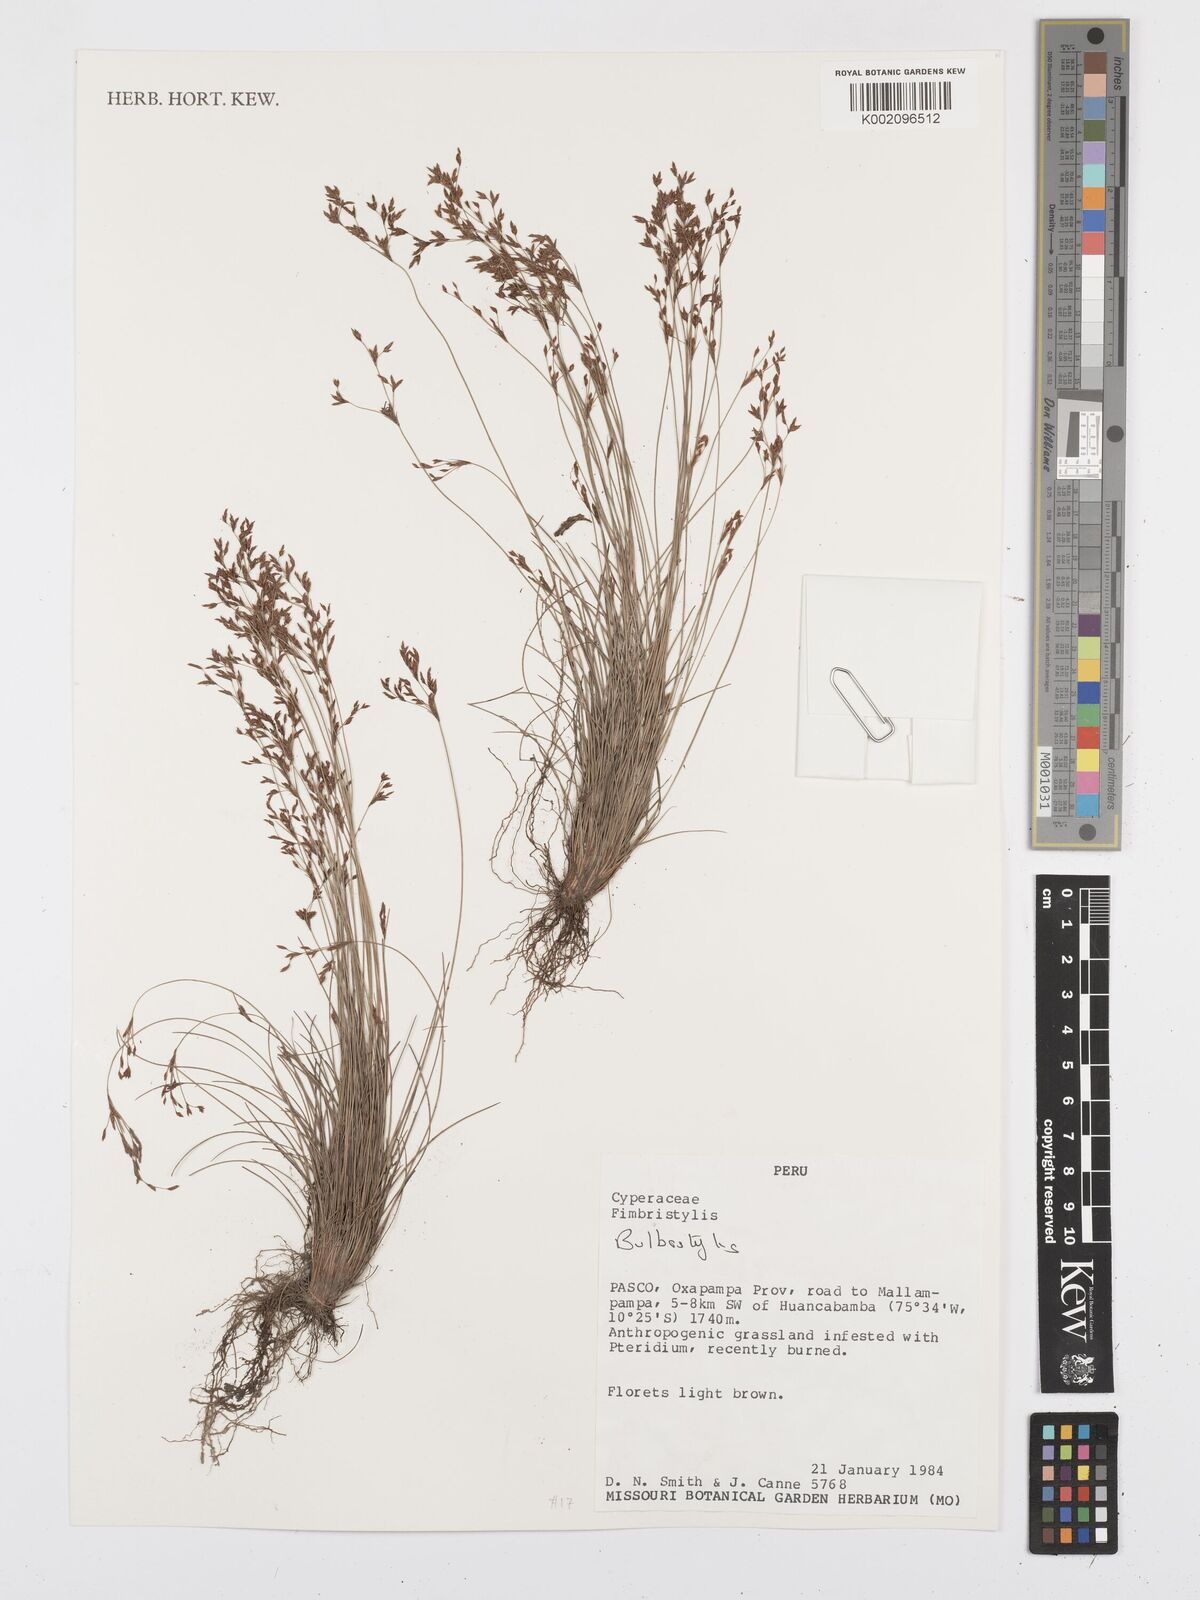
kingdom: Plantae
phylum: Tracheophyta
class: Liliopsida
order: Poales
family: Cyperaceae
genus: Bulbostylis
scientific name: Bulbostylis
